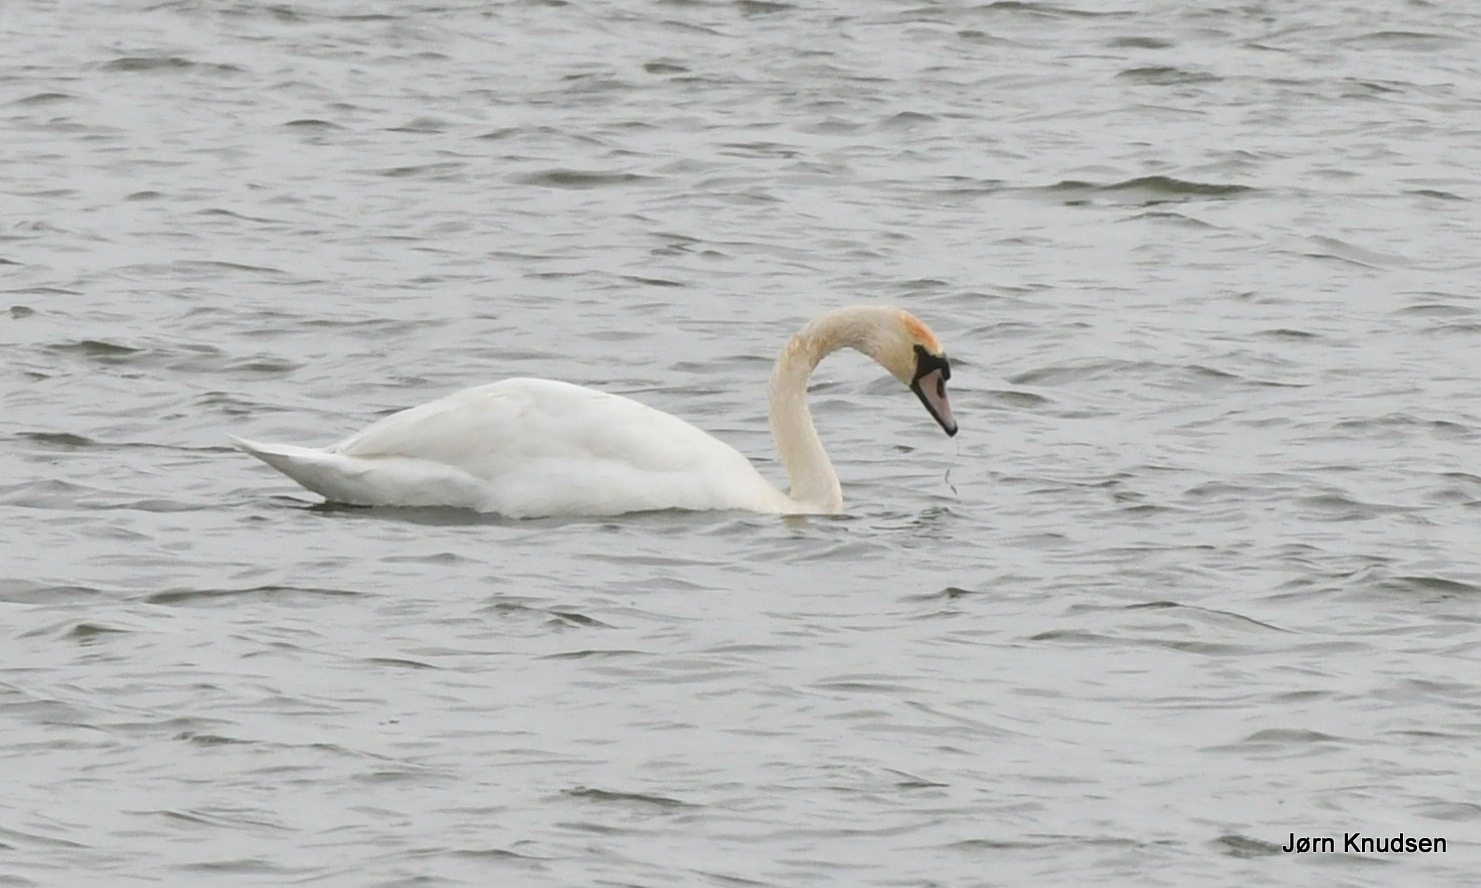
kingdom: Animalia
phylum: Chordata
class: Aves
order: Anseriformes
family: Anatidae
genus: Cygnus
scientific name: Cygnus olor
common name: Knopsvane
